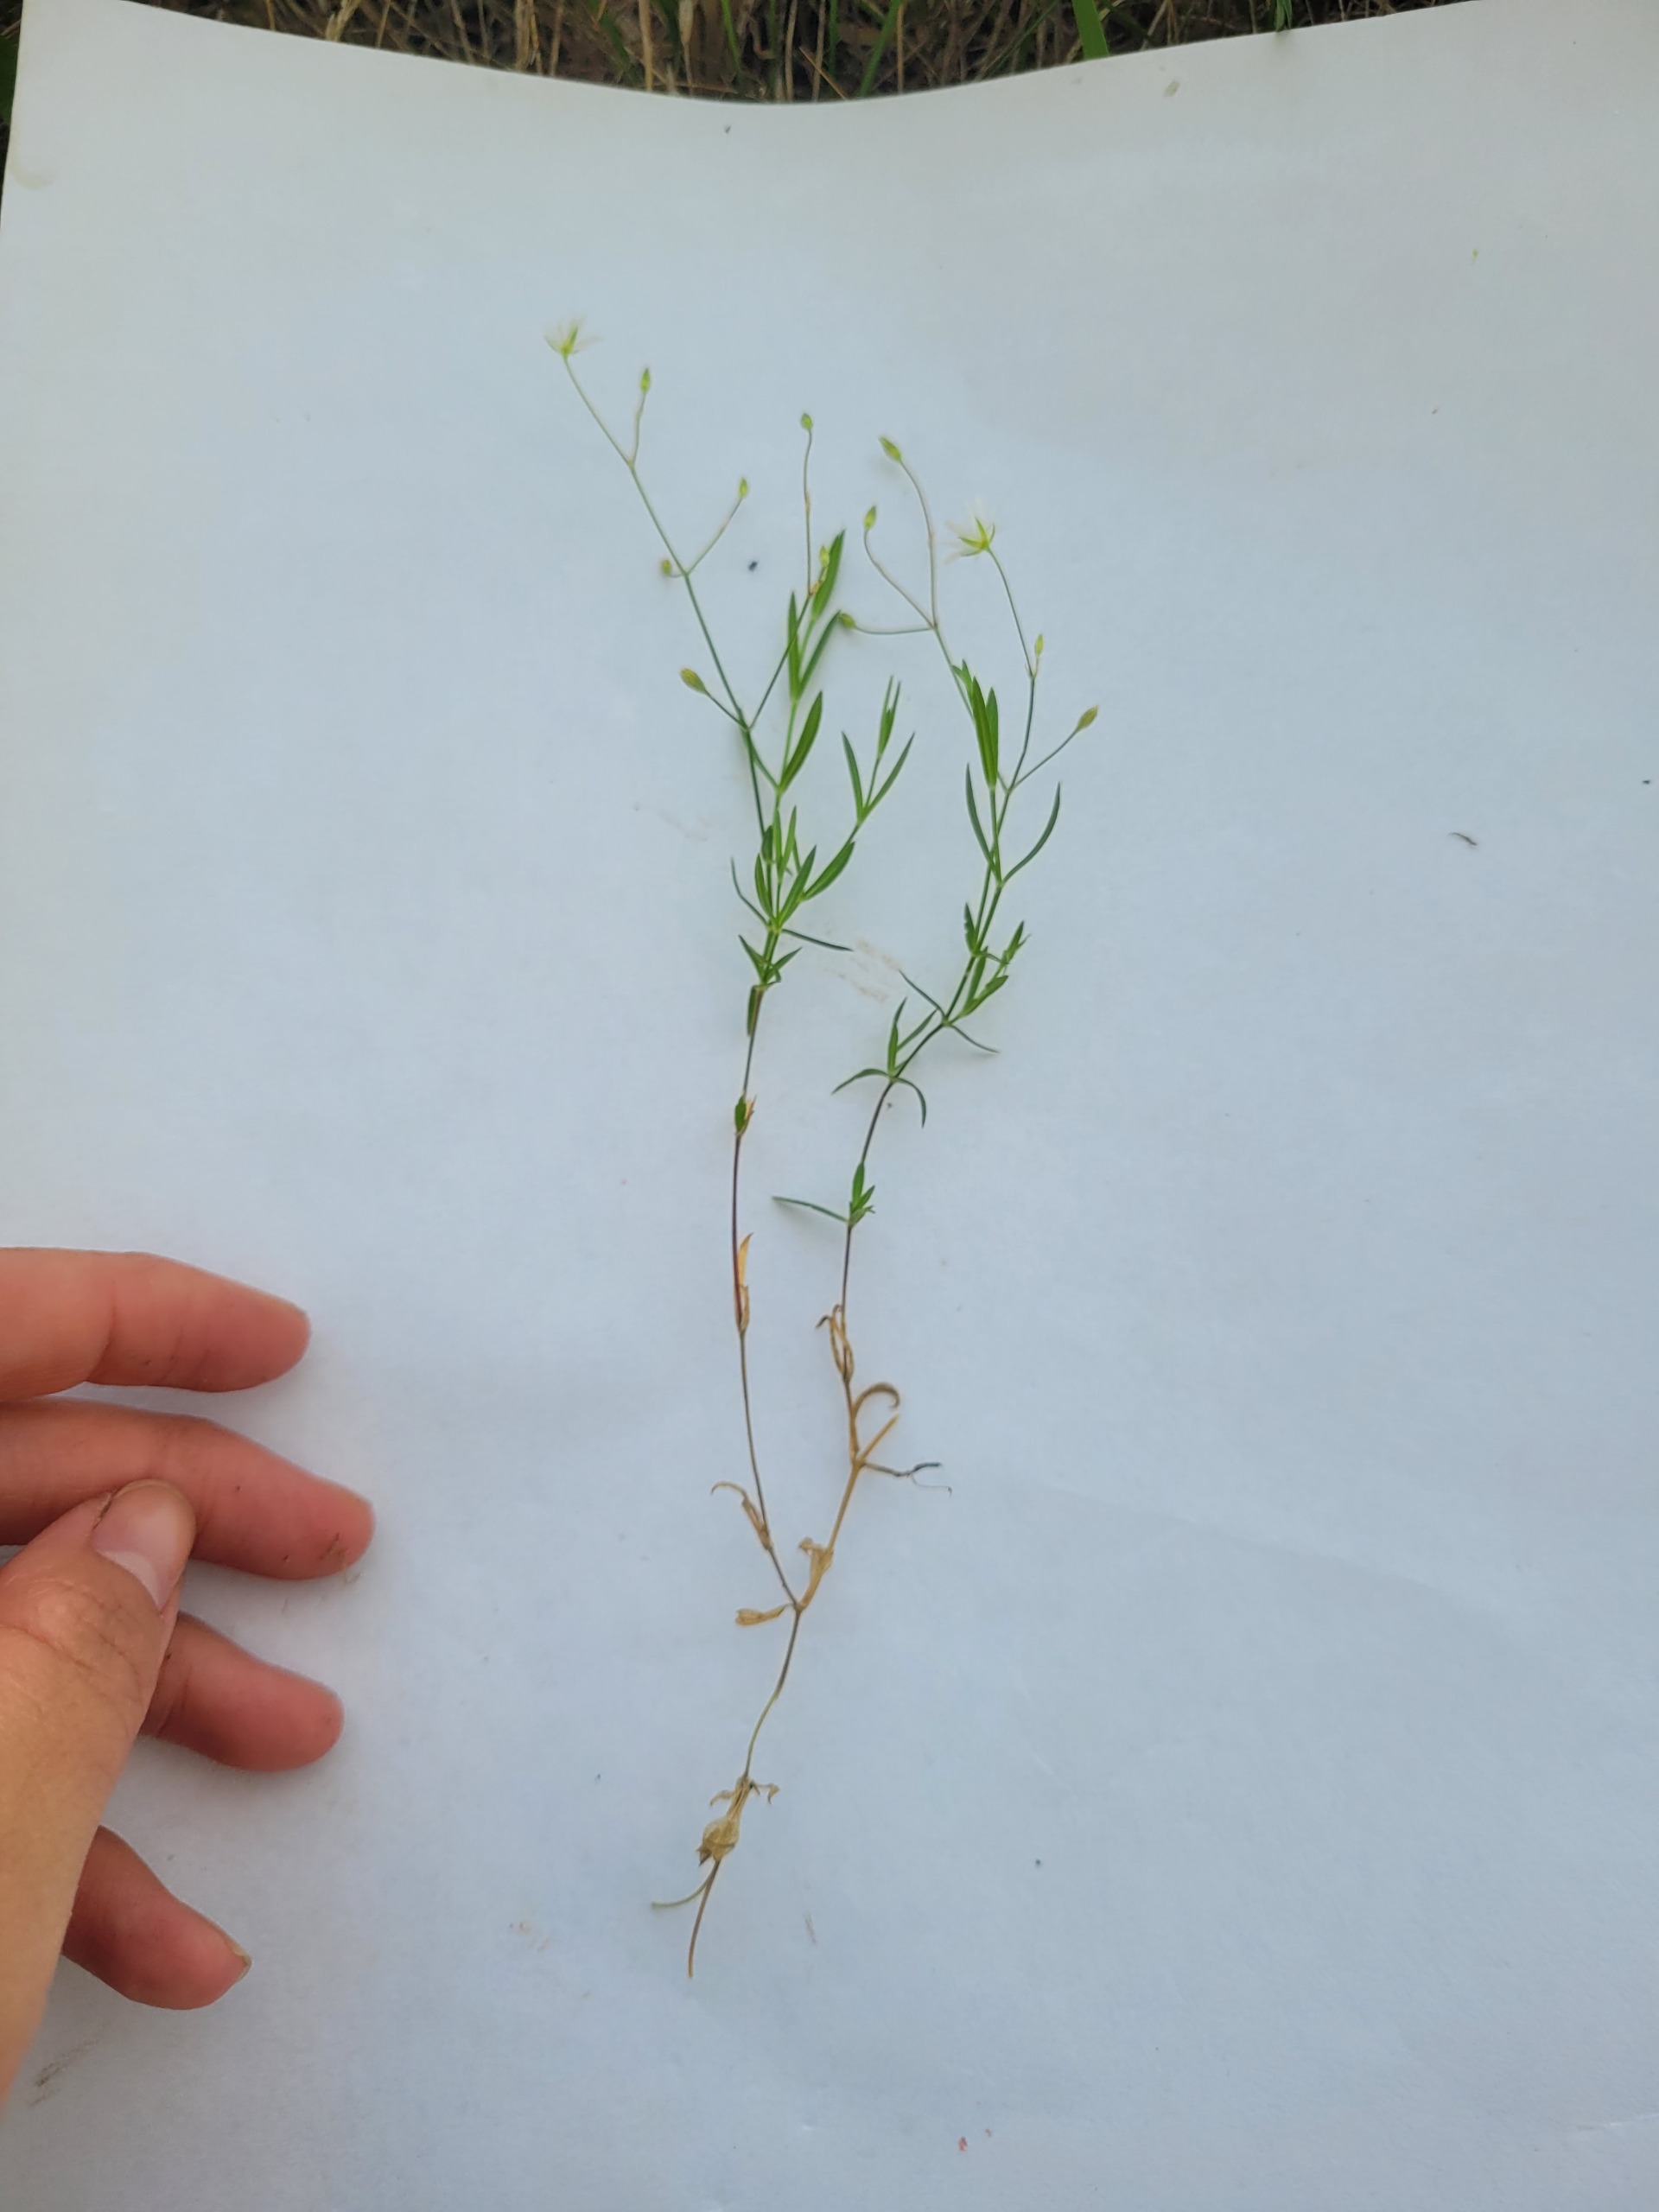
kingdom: Plantae
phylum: Tracheophyta
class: Magnoliopsida
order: Caryophyllales
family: Caryophyllaceae
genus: Stellaria
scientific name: Stellaria graminea
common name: Græsbladet fladstjerne
